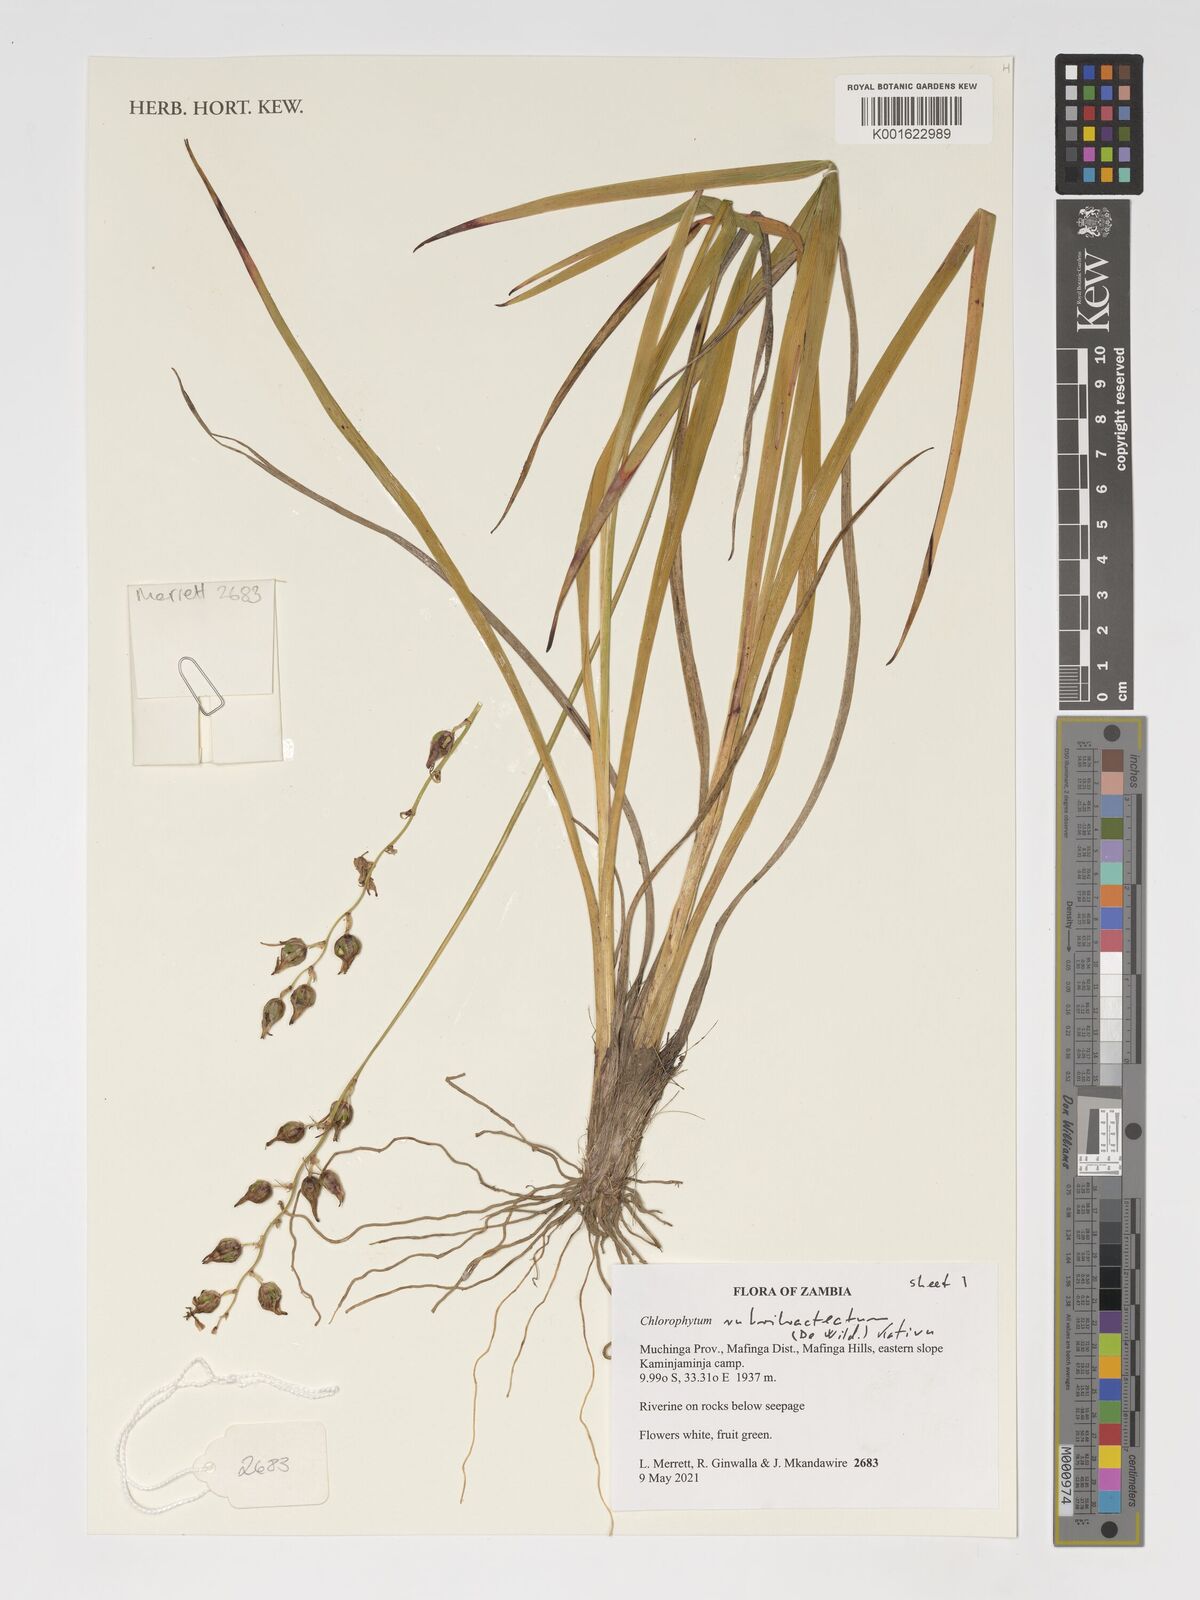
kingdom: Plantae
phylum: Tracheophyta
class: Liliopsida
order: Asparagales
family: Asparagaceae
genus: Chlorophytum
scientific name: Chlorophytum rubribracteatum
